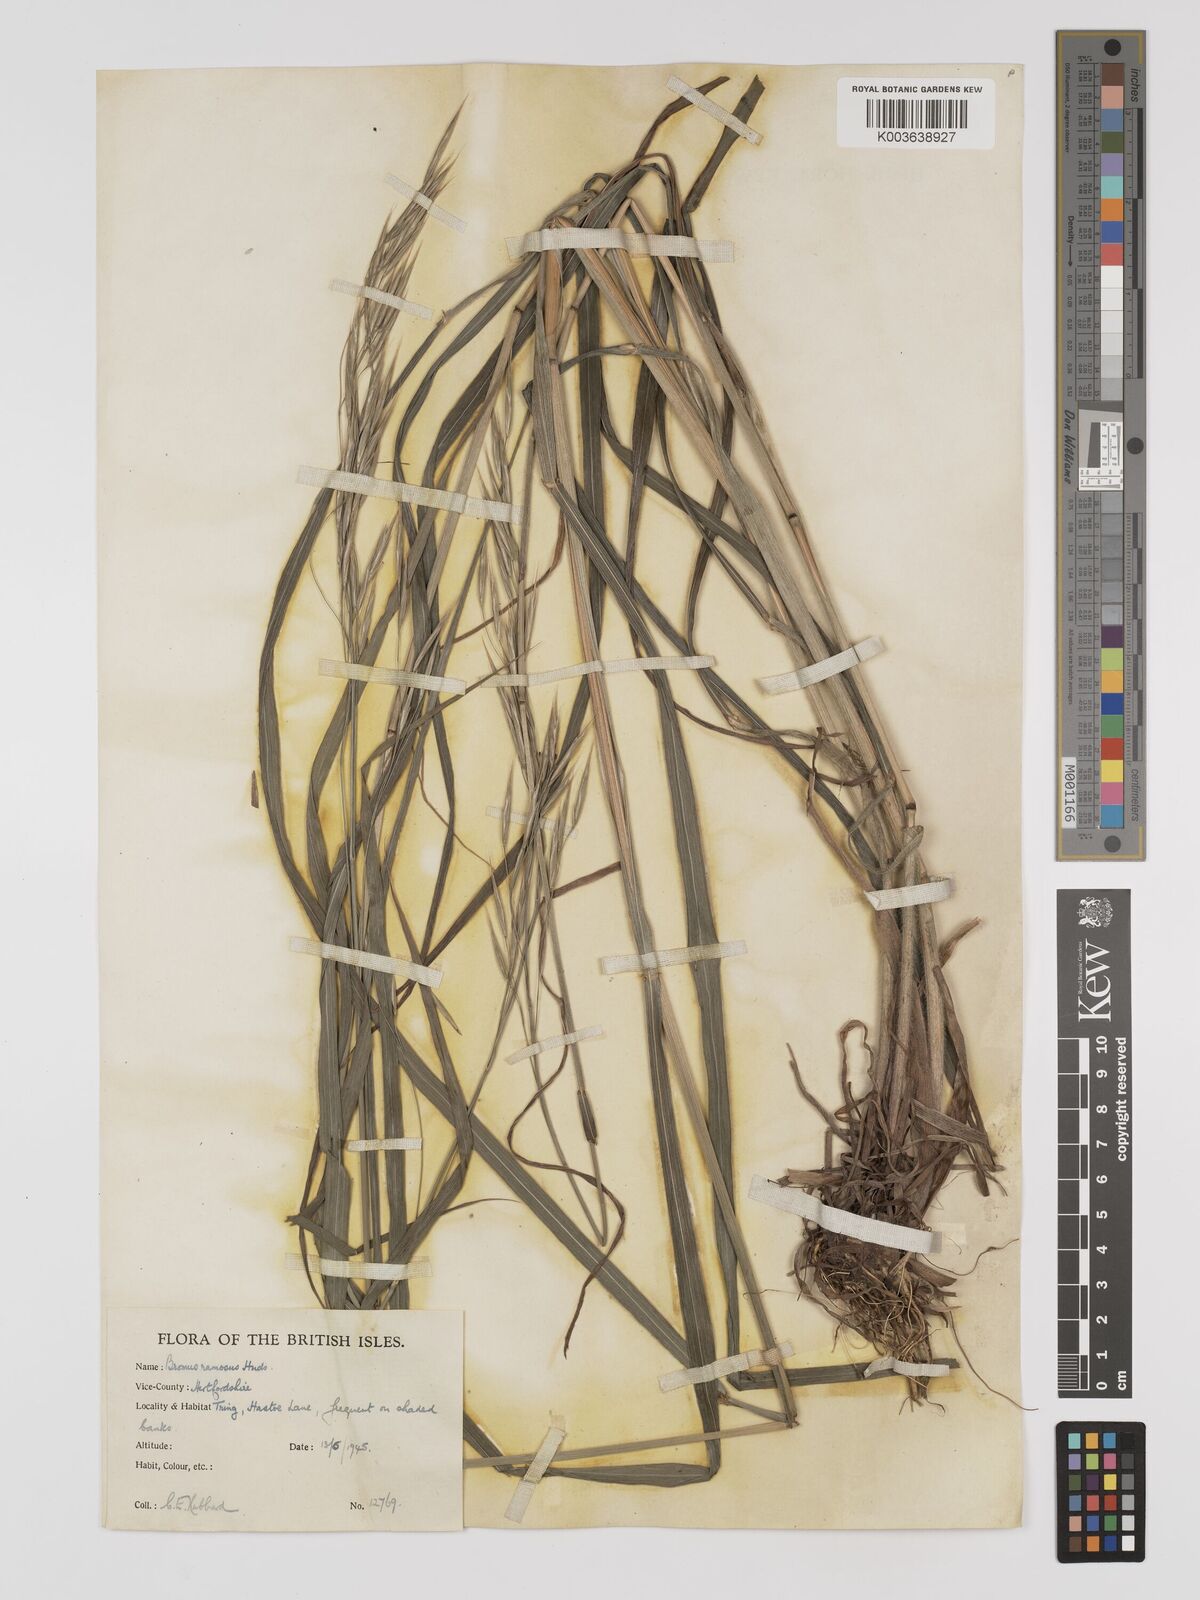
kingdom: Plantae
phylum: Tracheophyta
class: Liliopsida
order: Poales
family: Poaceae
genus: Bromus
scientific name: Bromus ramosus
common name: Hairy brome
